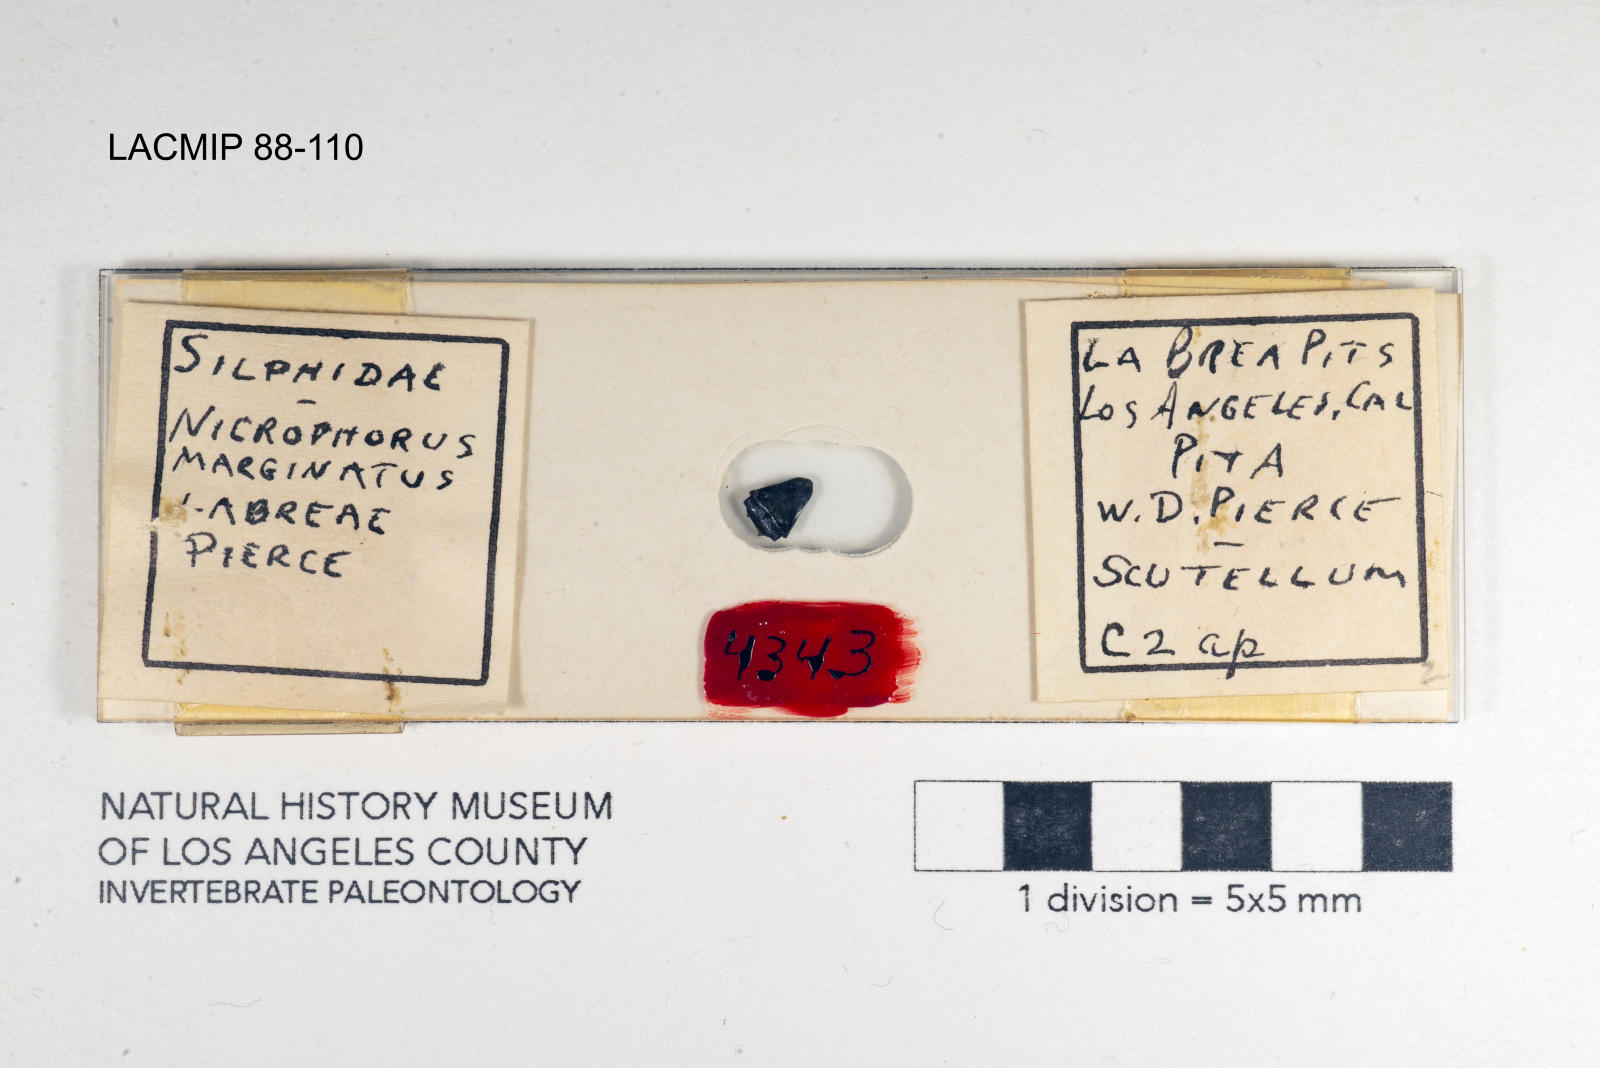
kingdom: Animalia
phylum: Arthropoda
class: Insecta
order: Coleoptera
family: Staphylinidae
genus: Nicrophorus
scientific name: Nicrophorus marginatus
